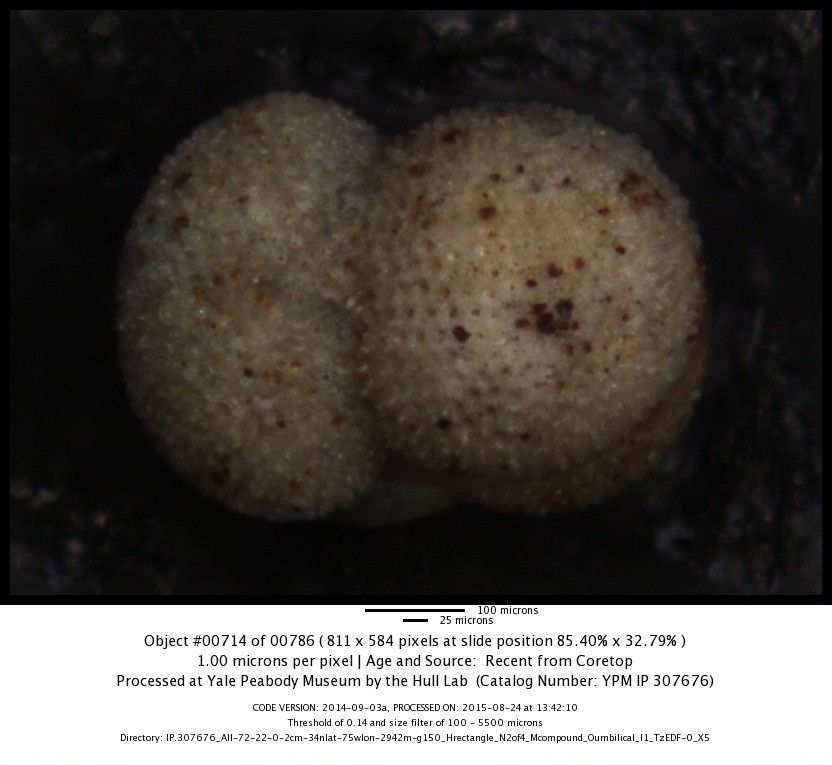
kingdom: Chromista
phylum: Foraminifera
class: Globothalamea
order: Rotaliida
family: Globigerinidae
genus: Globigerinoides
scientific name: Globigerinoides sacculifer
